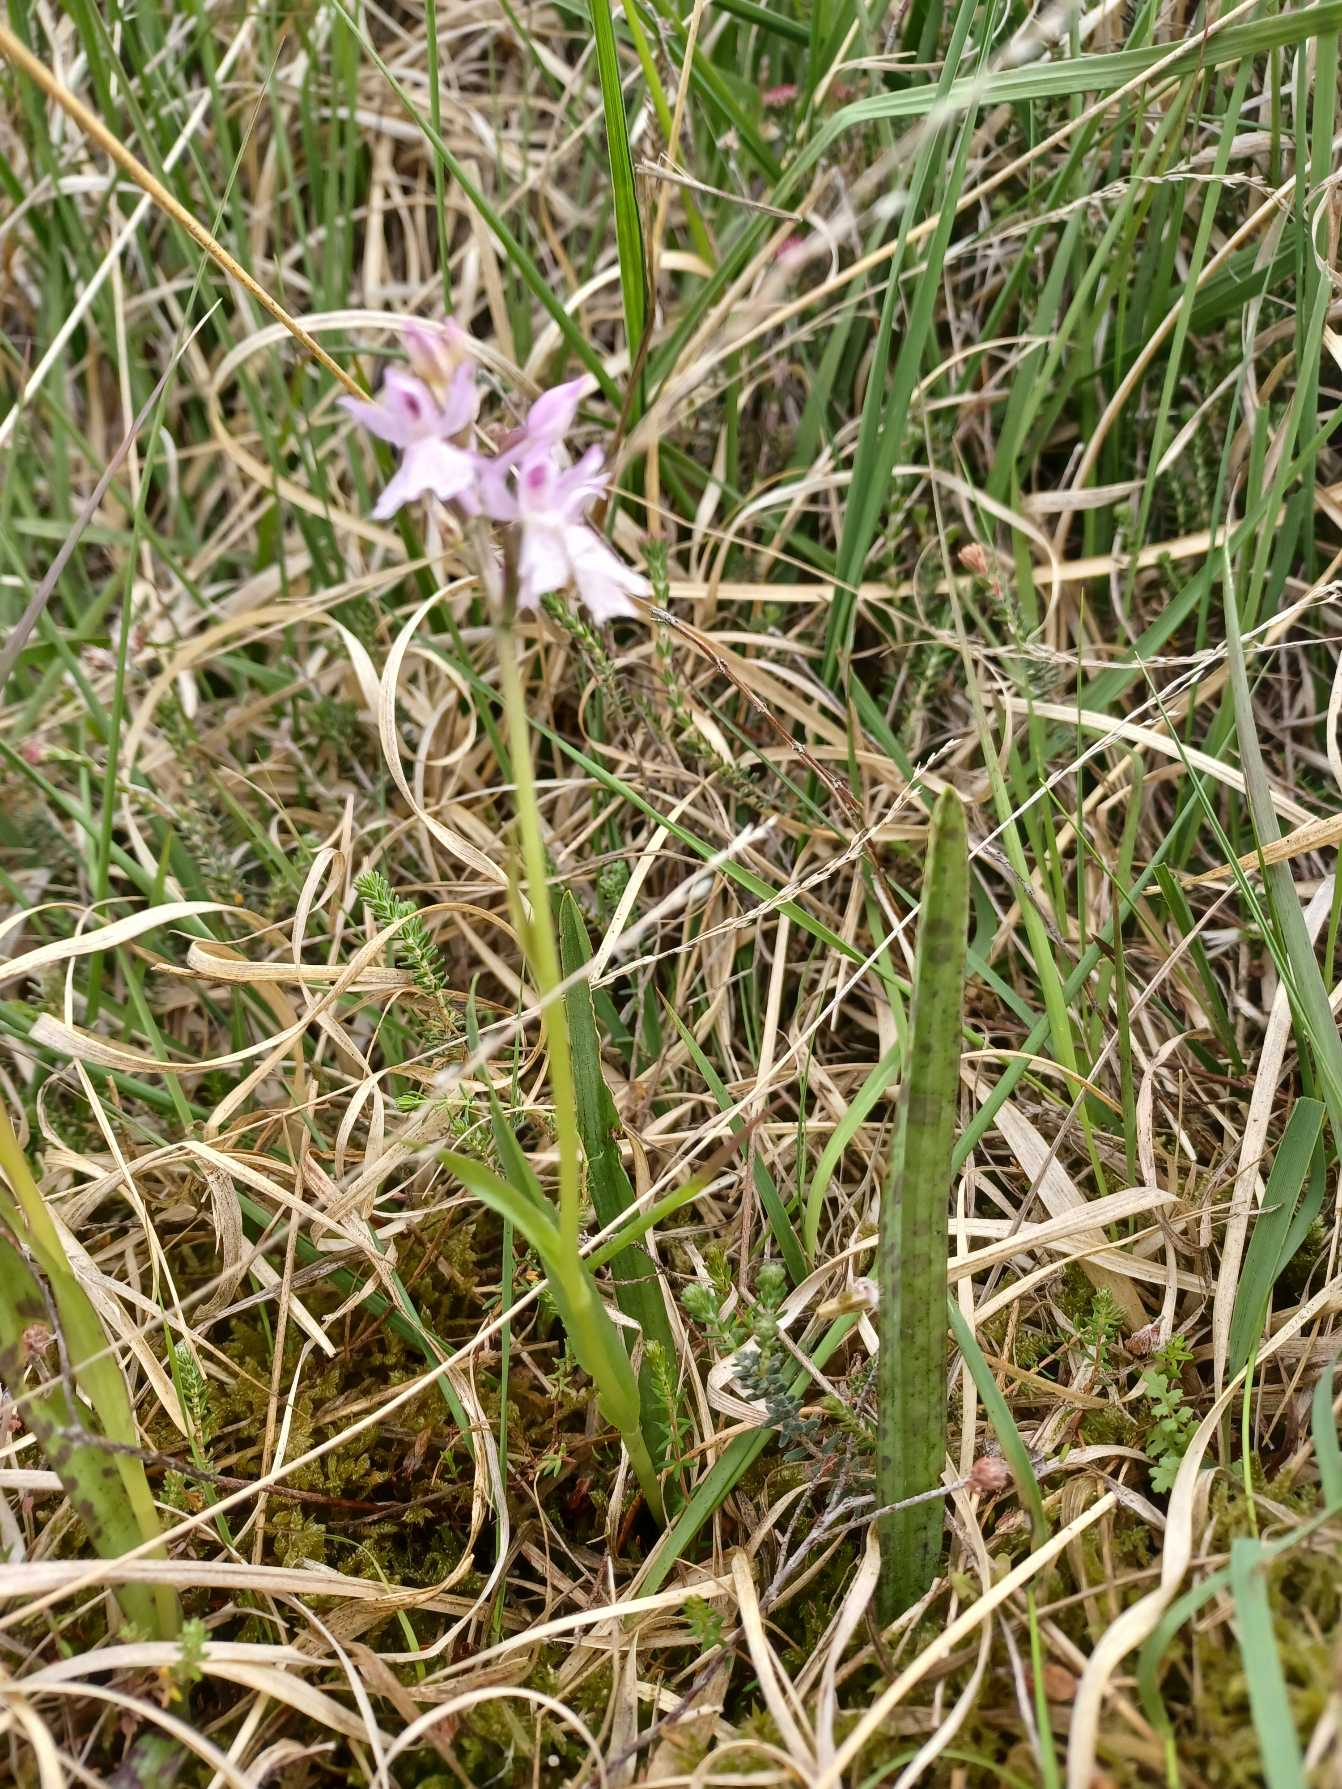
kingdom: Plantae
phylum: Tracheophyta
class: Liliopsida
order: Asparagales
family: Orchidaceae
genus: Dactylorhiza
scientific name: Dactylorhiza maculata
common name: Plettet gøgeurt
